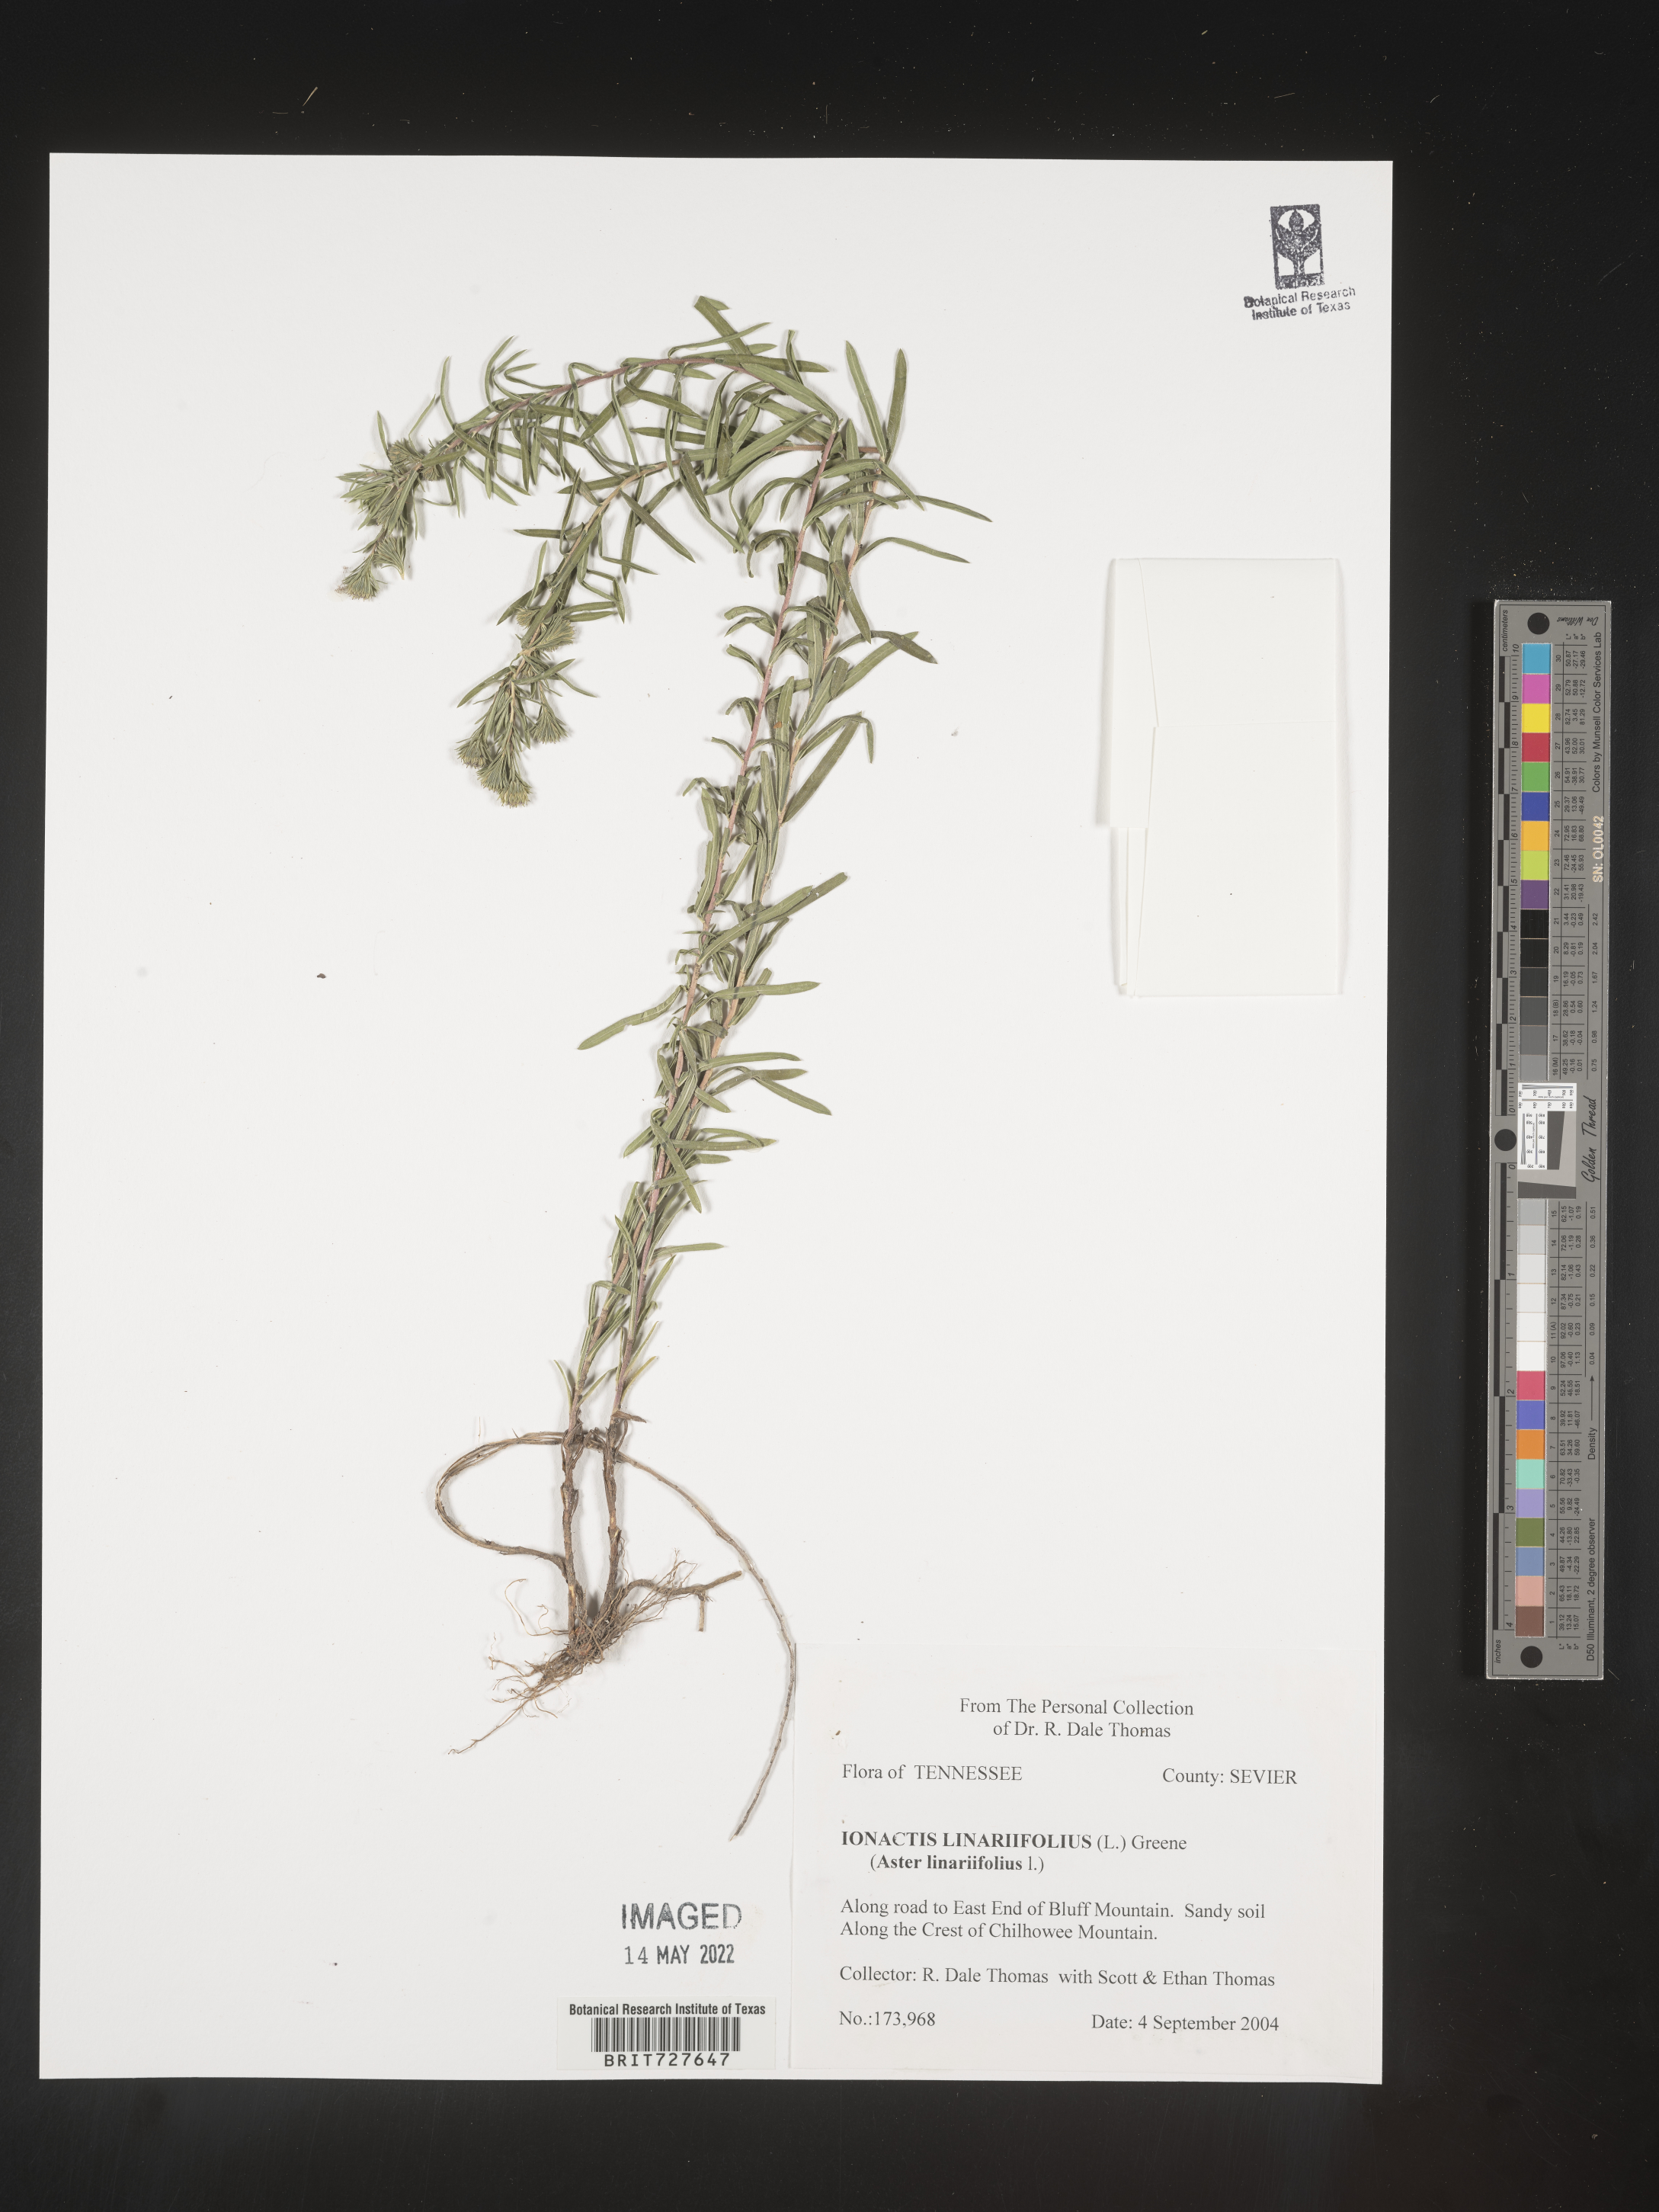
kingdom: Plantae
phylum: Tracheophyta
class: Magnoliopsida
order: Asterales
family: Asteraceae
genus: Ionactis
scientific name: Ionactis linariifolia
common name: Flax-leaf aster
